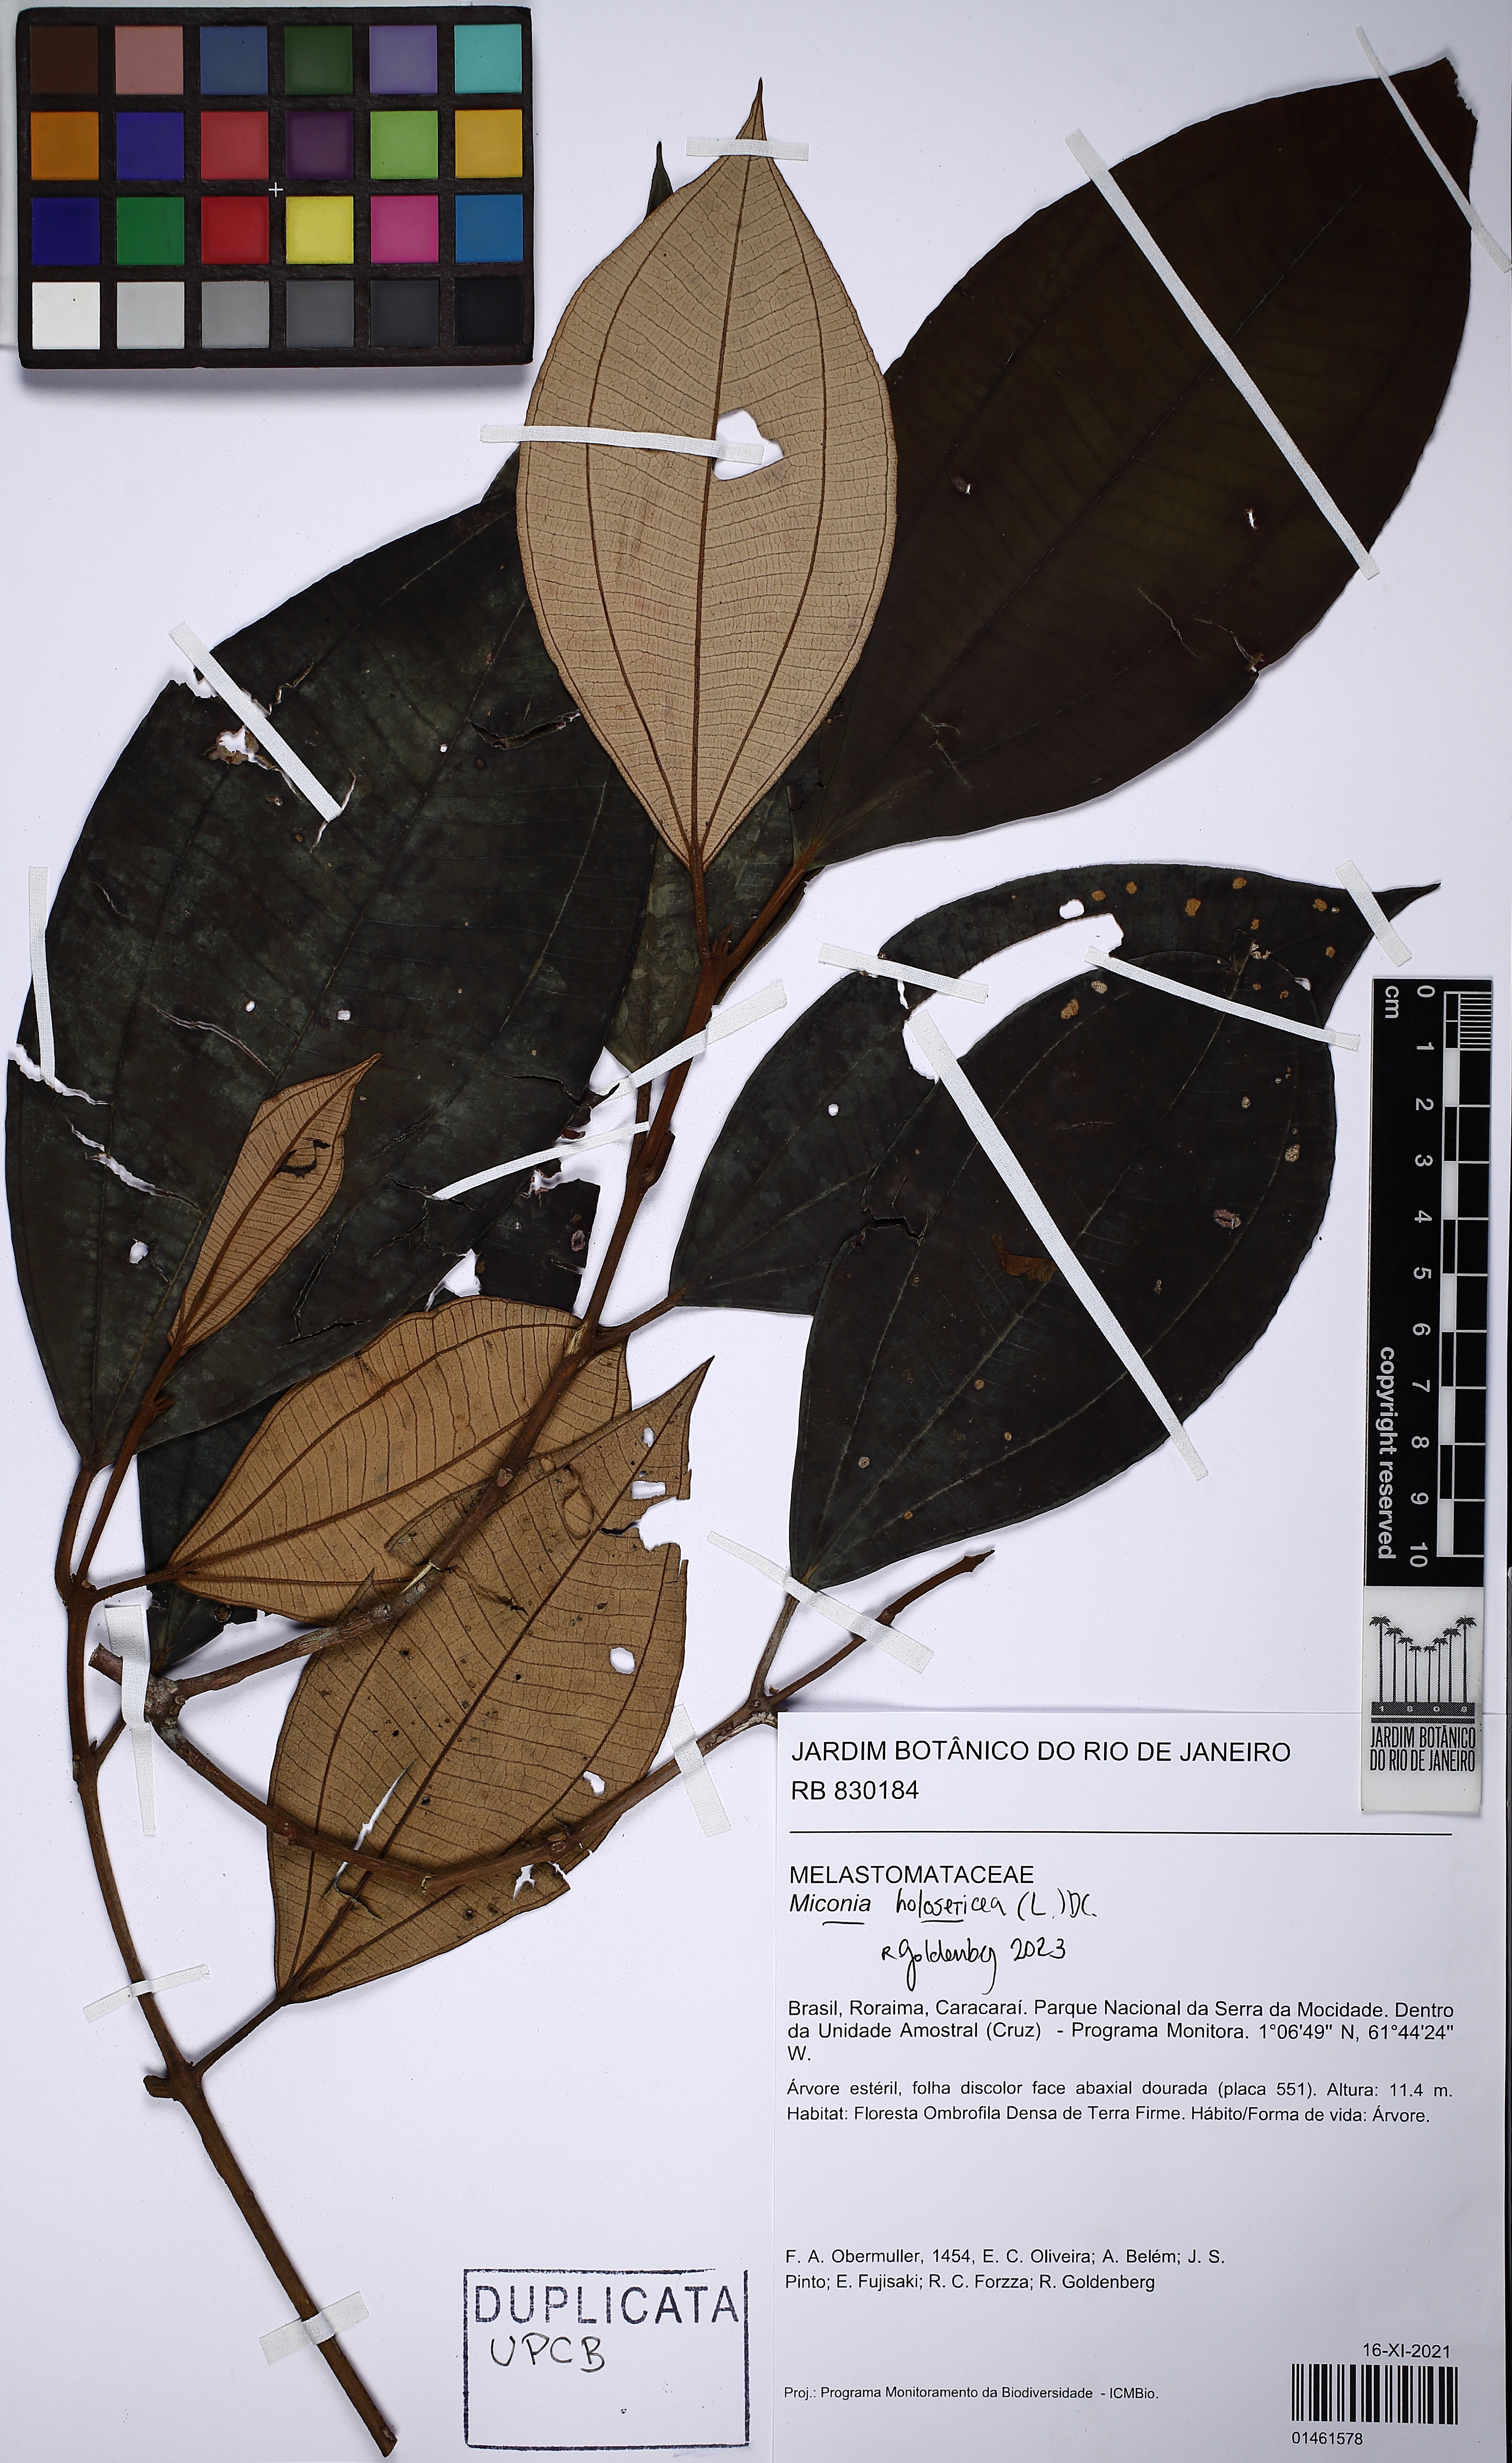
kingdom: Plantae
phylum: Tracheophyta
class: Magnoliopsida
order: Myrtales
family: Melastomataceae
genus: Miconia
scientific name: Miconia holosericea
